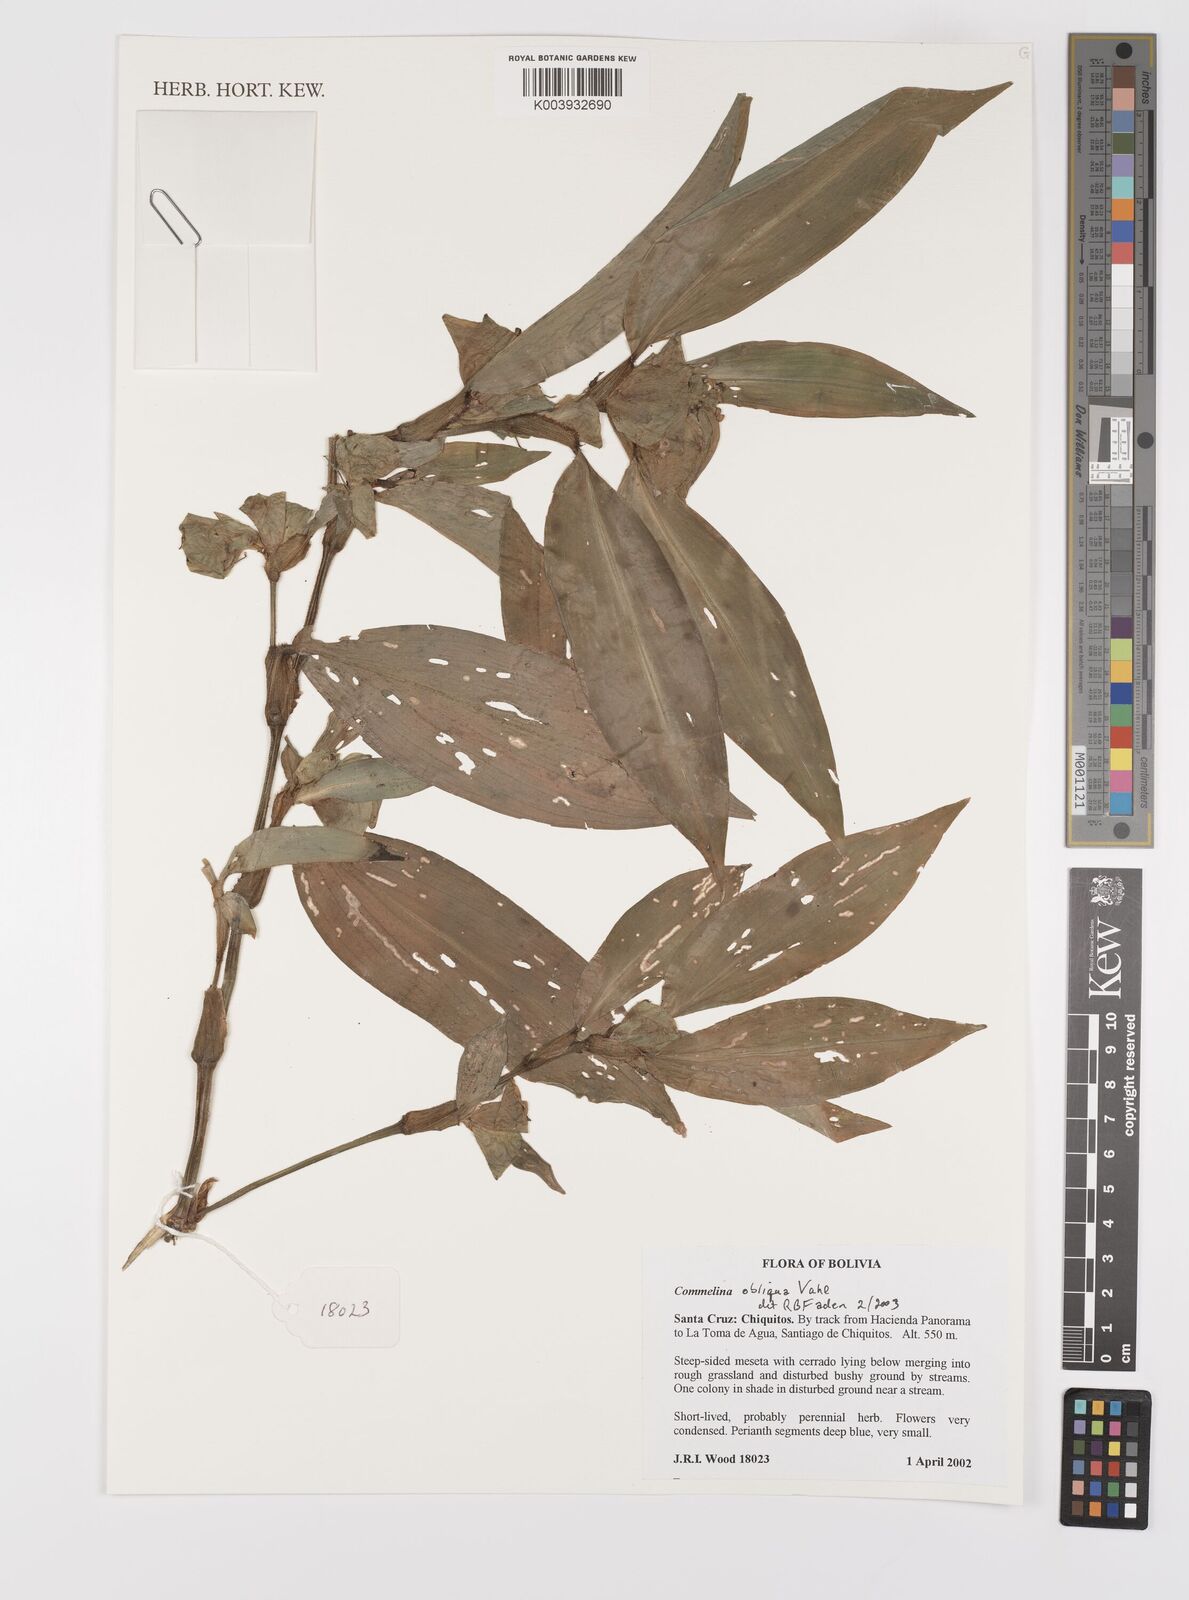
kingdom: Plantae
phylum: Tracheophyta
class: Liliopsida
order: Commelinales
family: Commelinaceae
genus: Commelina
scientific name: Commelina obliqua
